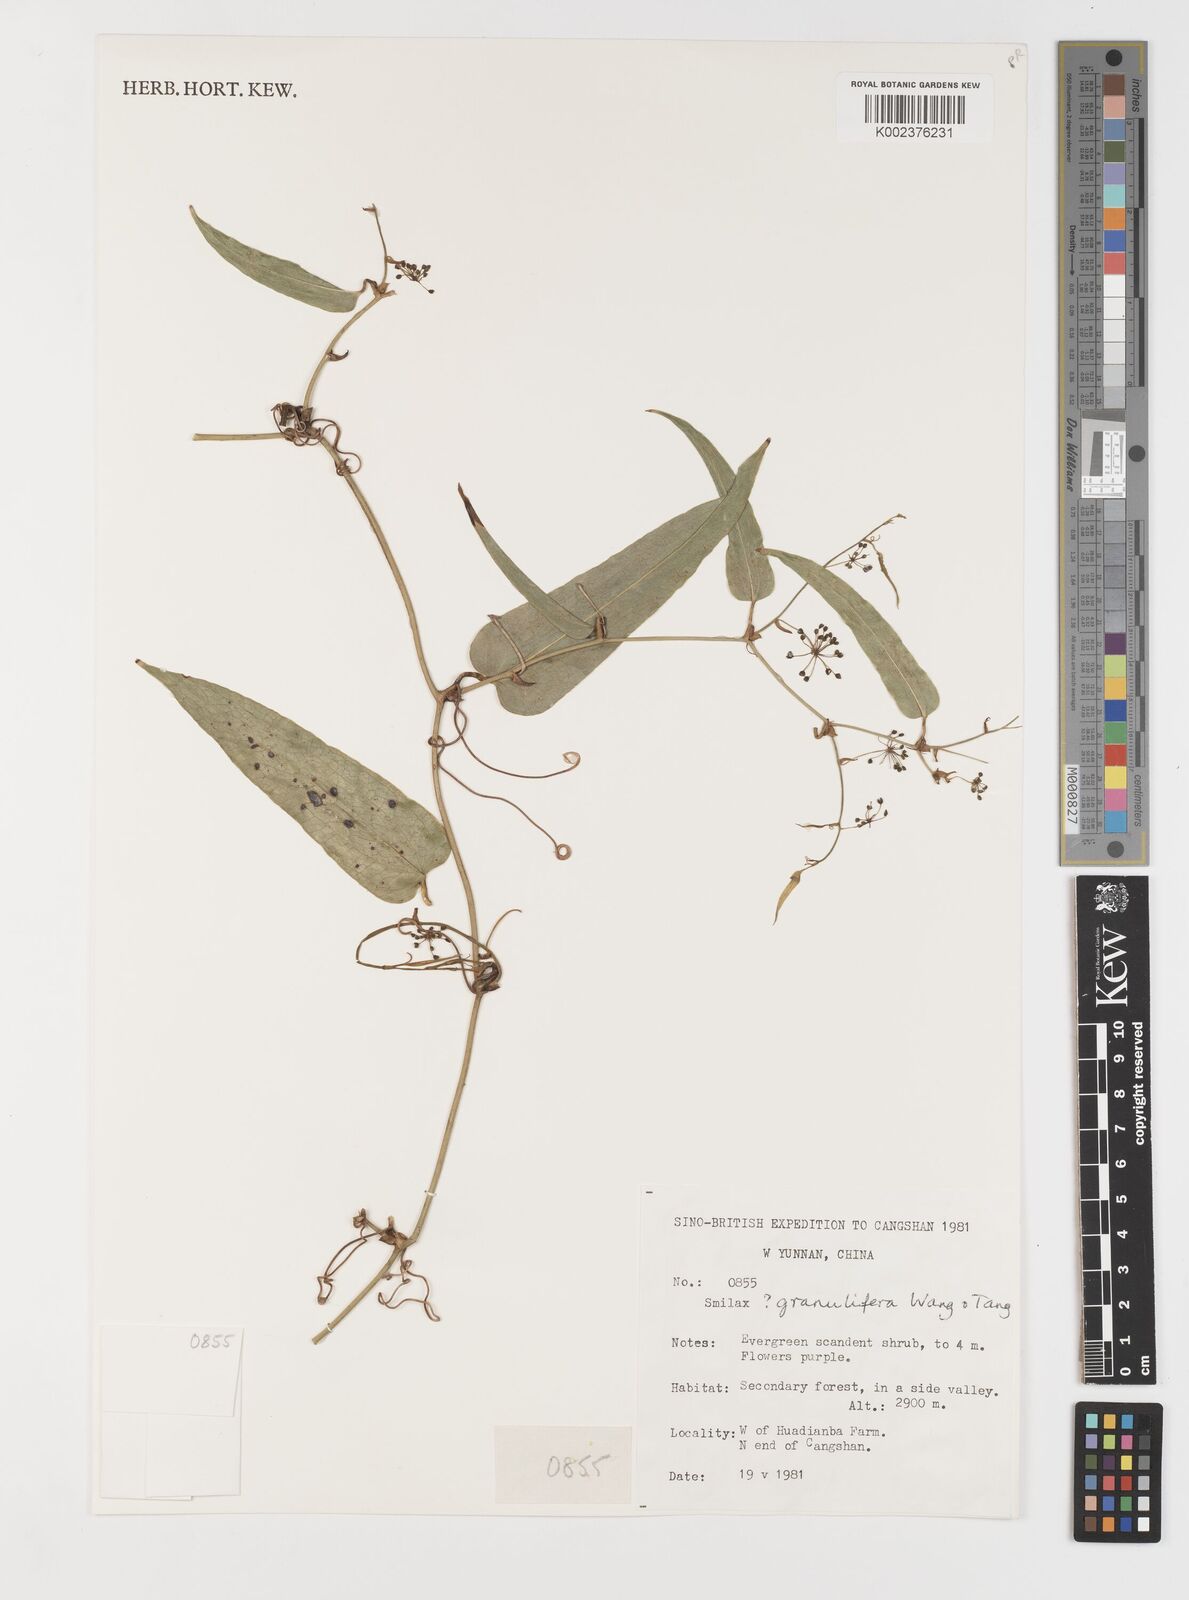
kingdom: Plantae
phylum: Tracheophyta
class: Liliopsida
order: Liliales
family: Smilacaceae
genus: Smilax
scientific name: Smilax
